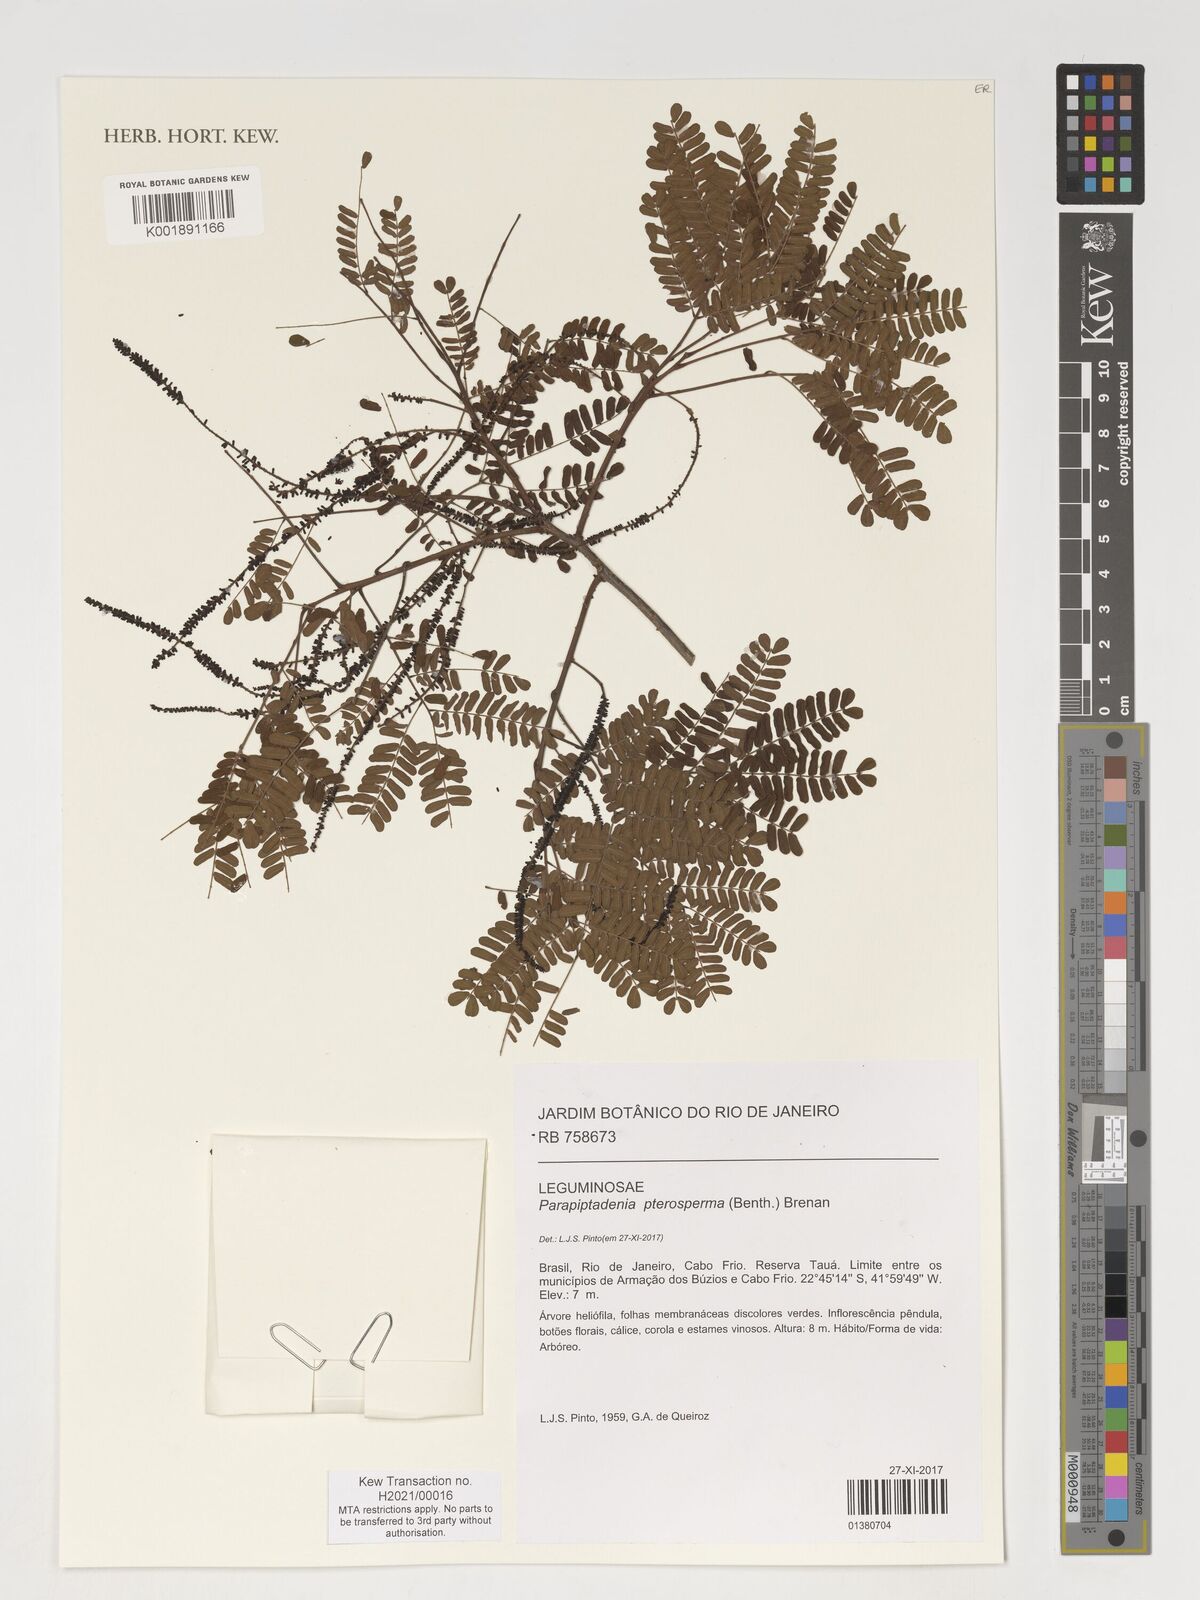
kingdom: Plantae
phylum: Tracheophyta
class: Magnoliopsida
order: Fabales
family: Fabaceae
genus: Parapiptadenia
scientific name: Parapiptadenia pterosperma
